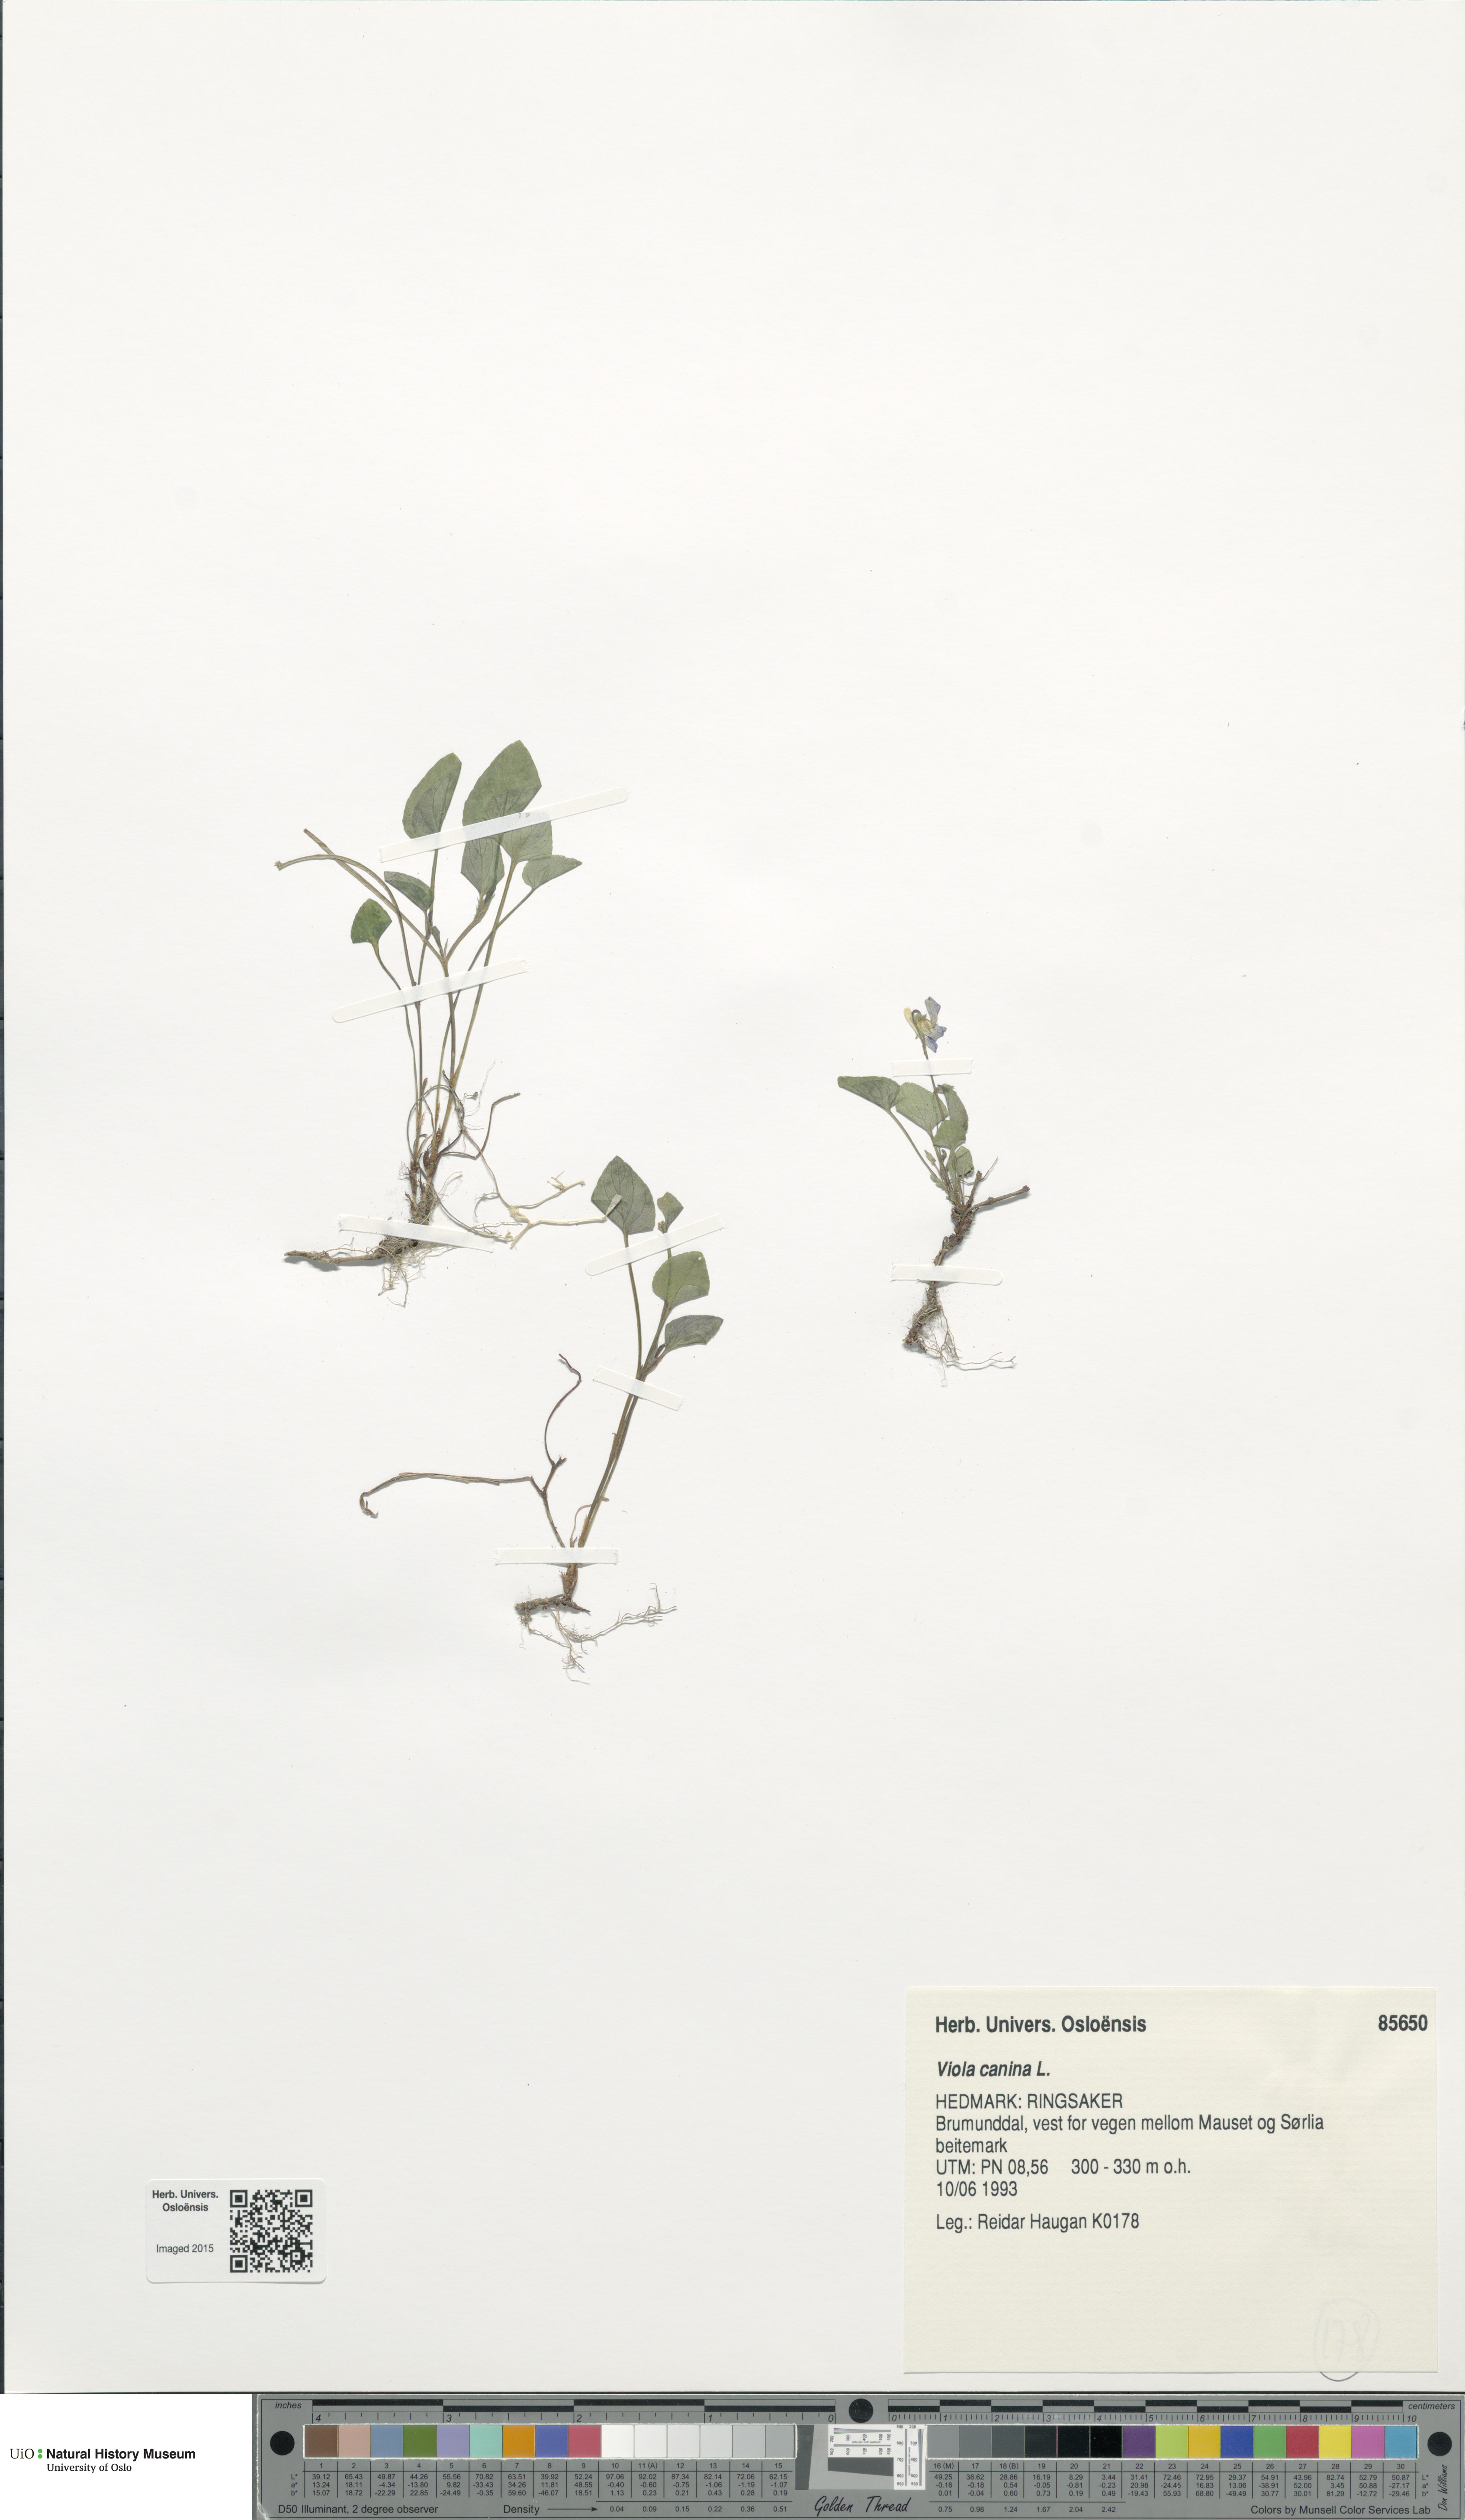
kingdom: Plantae
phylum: Tracheophyta
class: Magnoliopsida
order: Malpighiales
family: Violaceae
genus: Viola
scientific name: Viola canina
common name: Heath dog-violet
